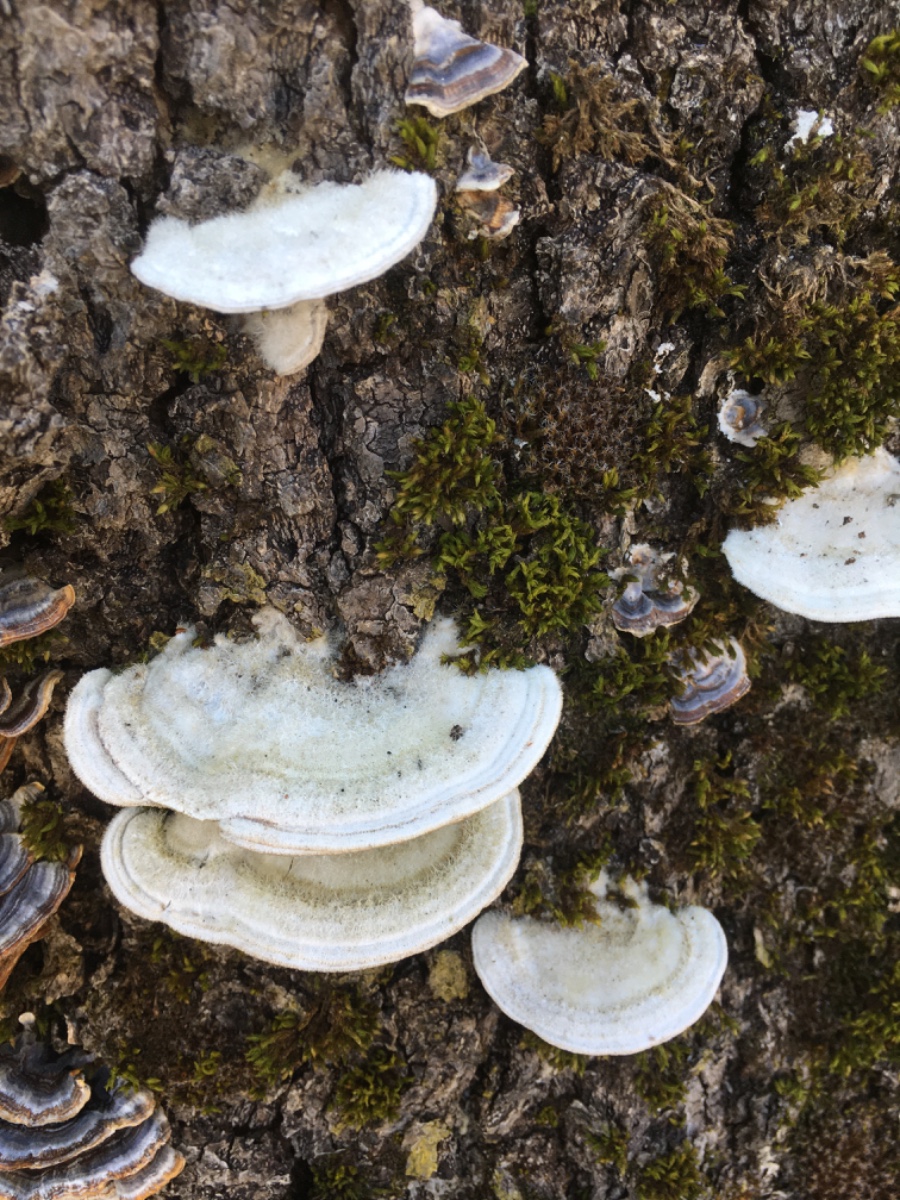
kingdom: Fungi
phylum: Basidiomycota
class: Agaricomycetes
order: Polyporales
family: Polyporaceae
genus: Trametes
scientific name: Trametes hirsuta
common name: håret læderporesvamp
